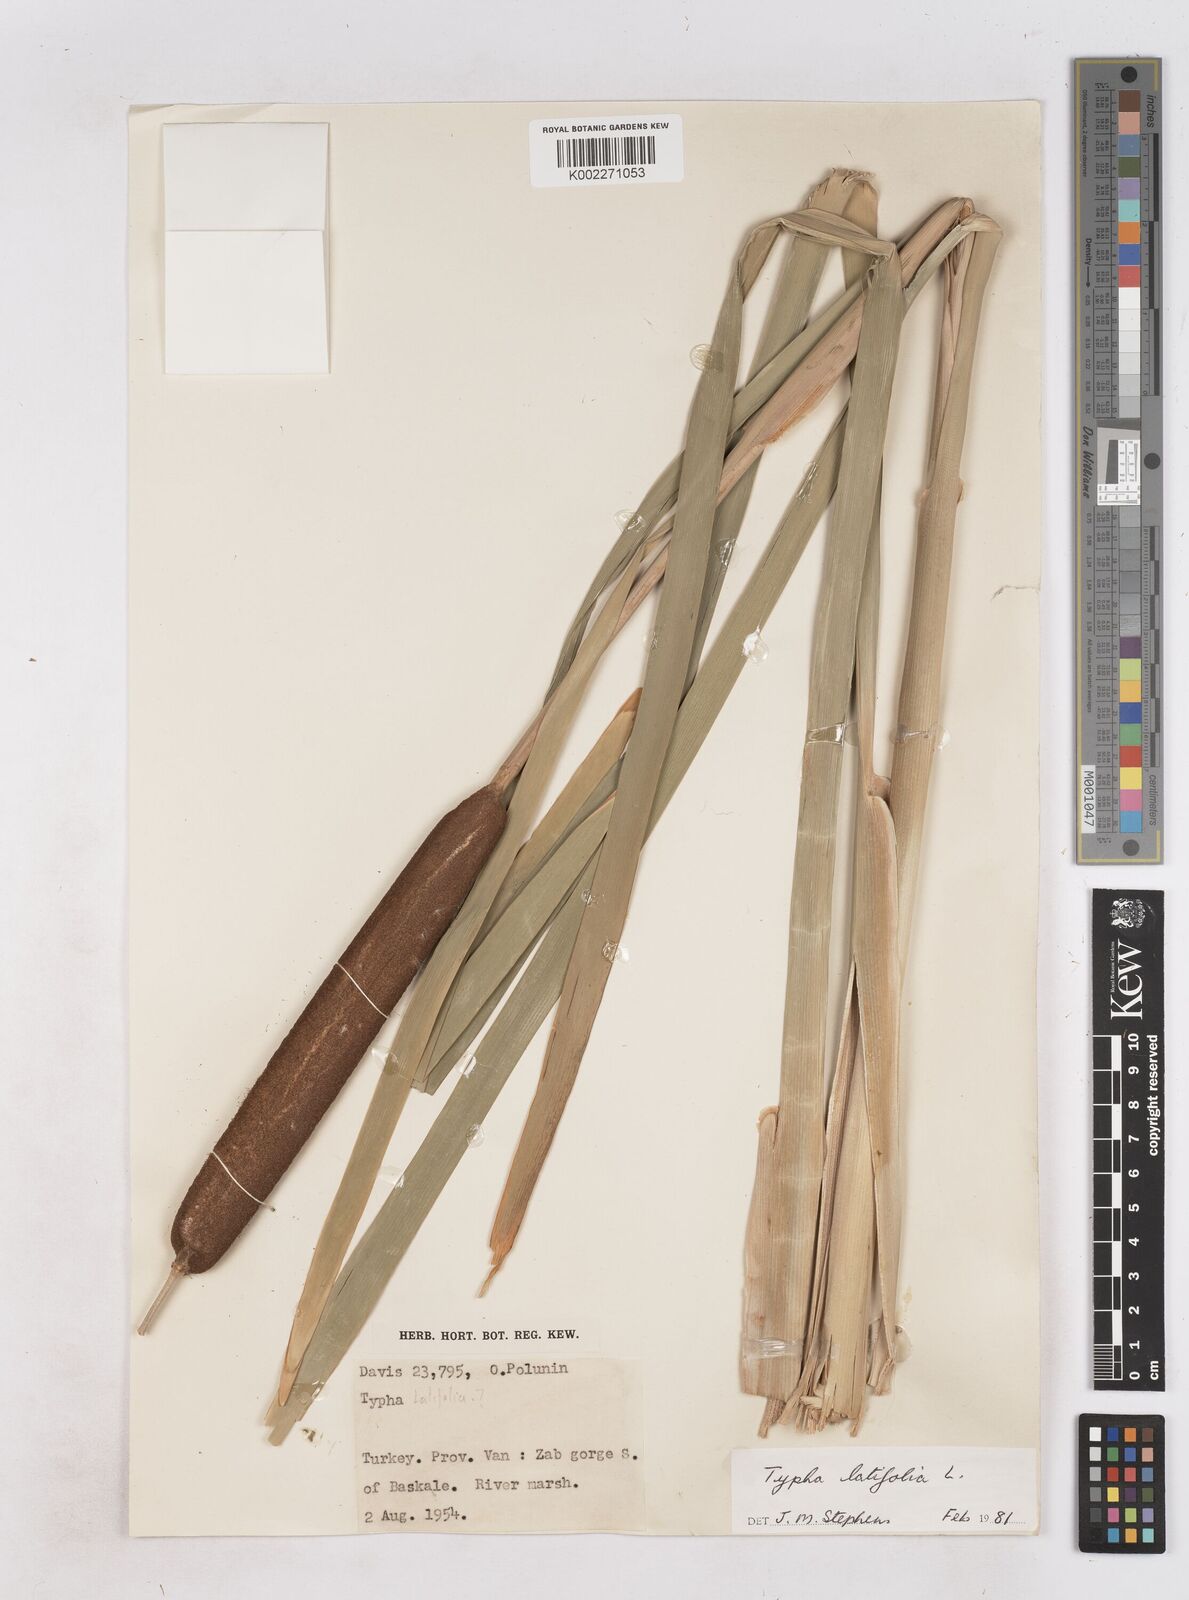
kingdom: Plantae
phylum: Tracheophyta
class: Liliopsida
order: Poales
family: Typhaceae
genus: Typha
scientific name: Typha latifolia
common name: Broadleaf cattail
